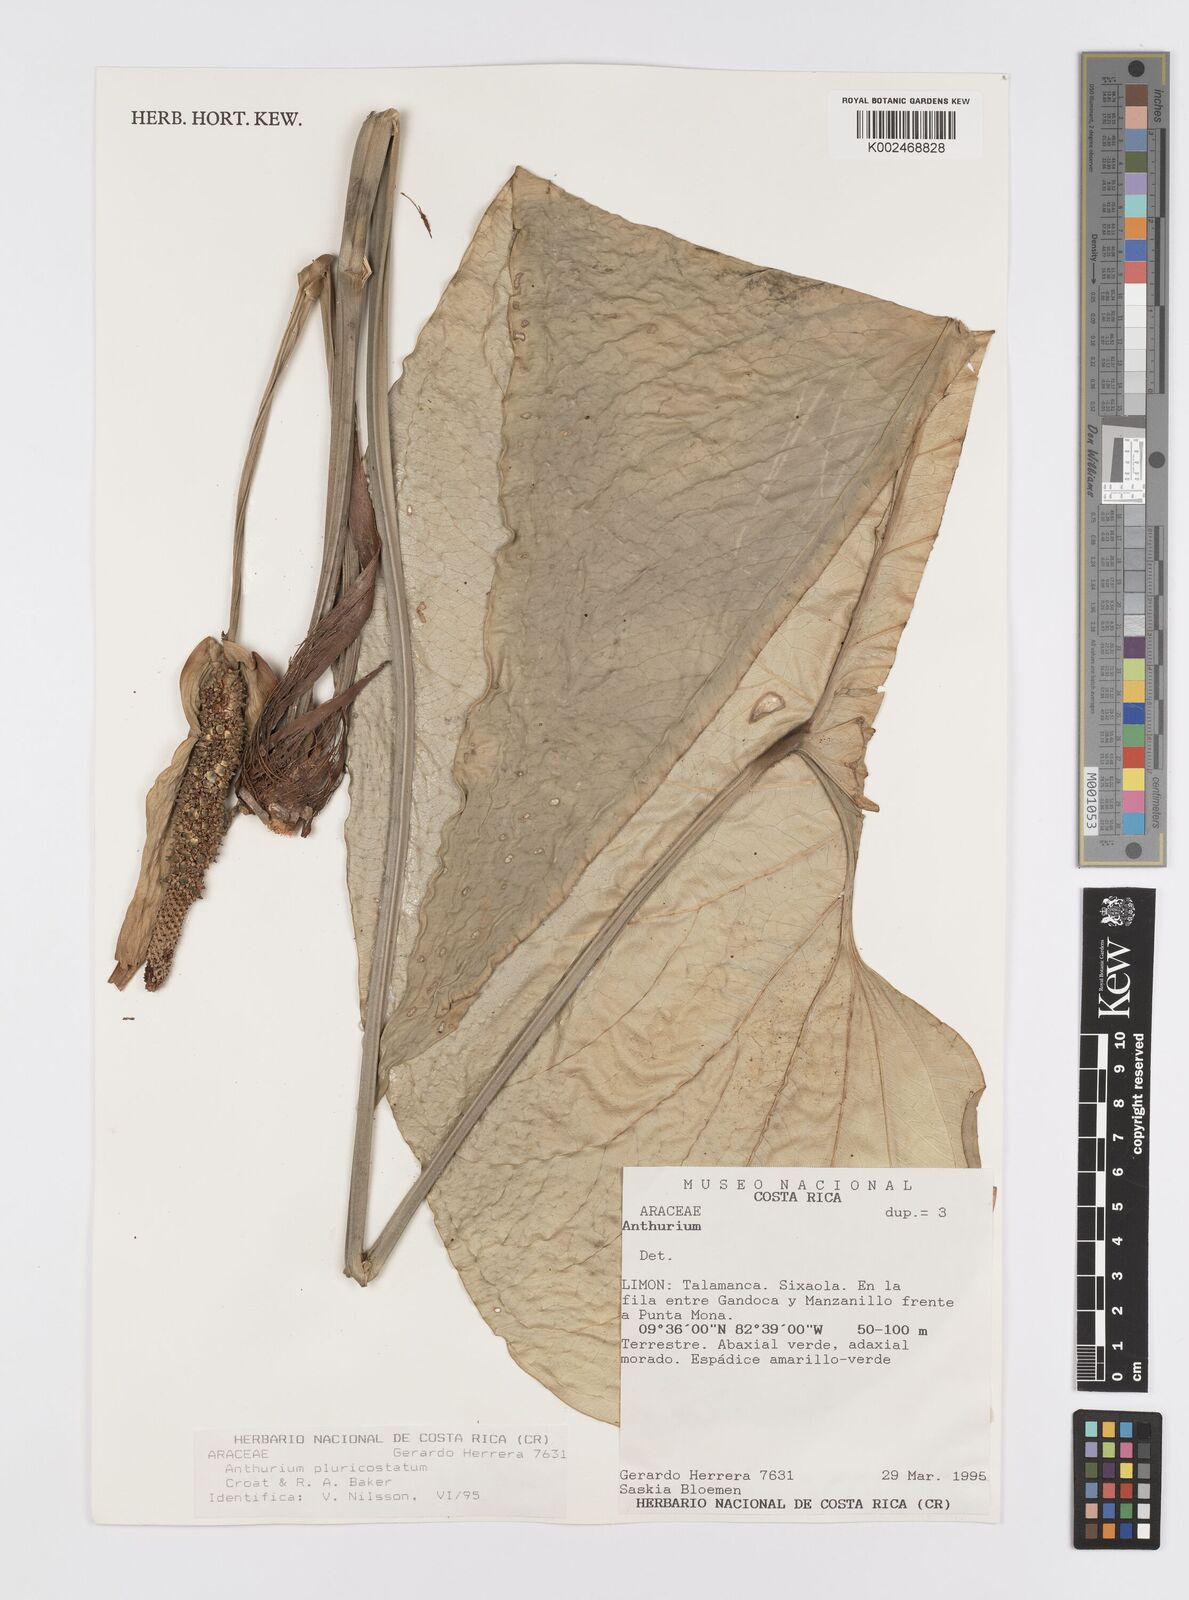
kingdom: Plantae
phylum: Tracheophyta
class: Liliopsida
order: Alismatales
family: Araceae
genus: Anthurium
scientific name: Anthurium ochranthum
